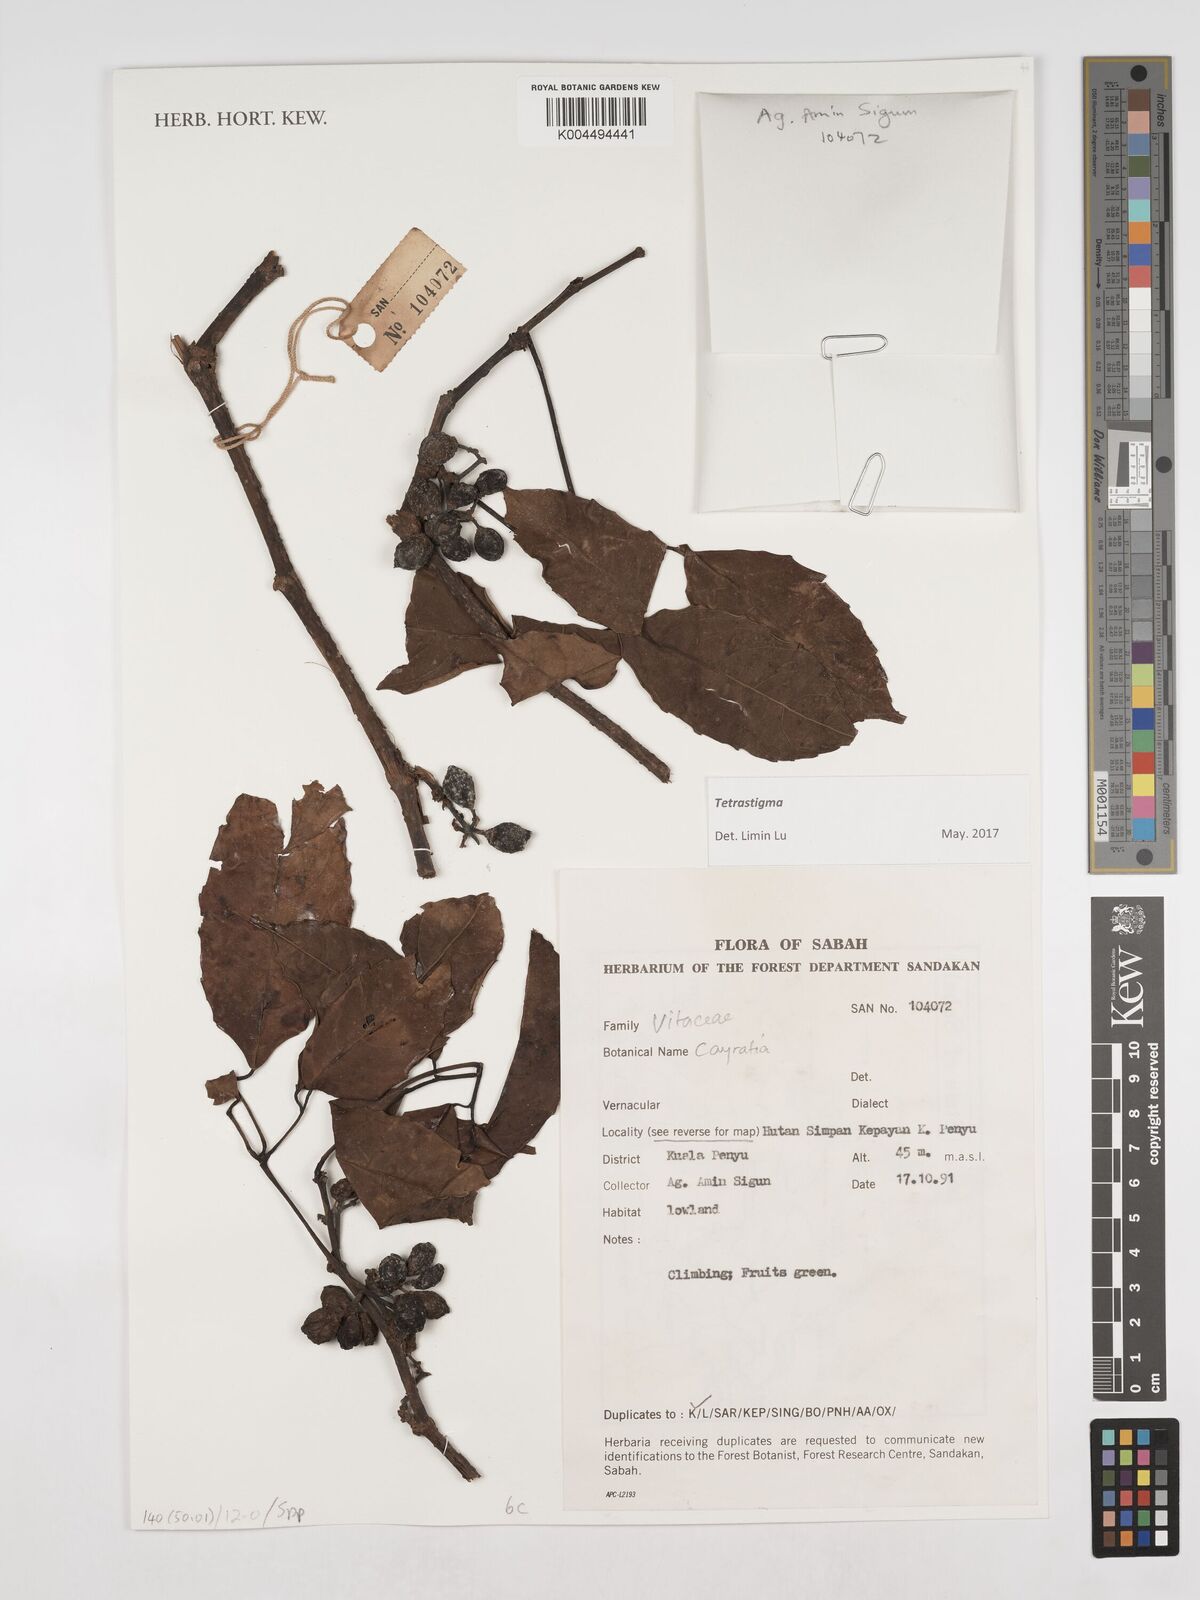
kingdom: Plantae
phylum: Tracheophyta
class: Magnoliopsida
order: Vitales
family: Vitaceae
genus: Tetrastigma
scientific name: Tetrastigma
